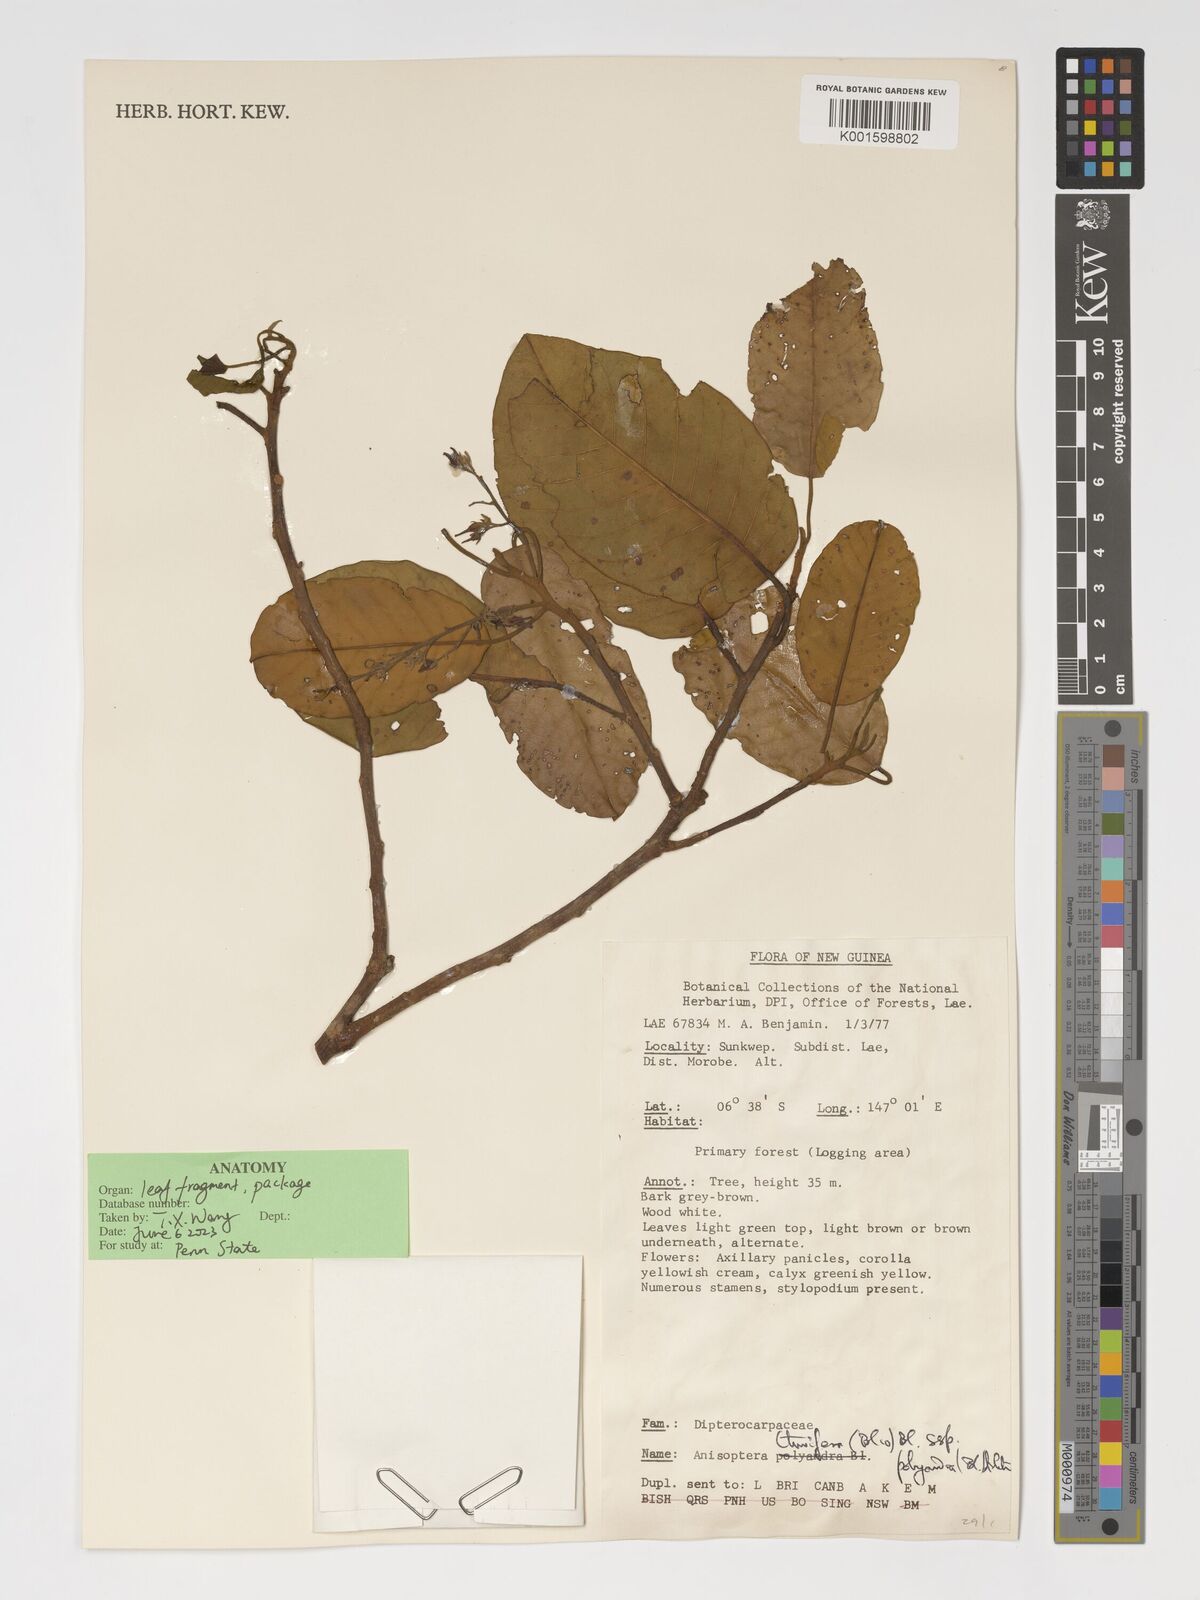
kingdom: Plantae
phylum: Tracheophyta
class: Magnoliopsida
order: Malvales
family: Dipterocarpaceae
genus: Anisoptera
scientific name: Anisoptera thurifera
